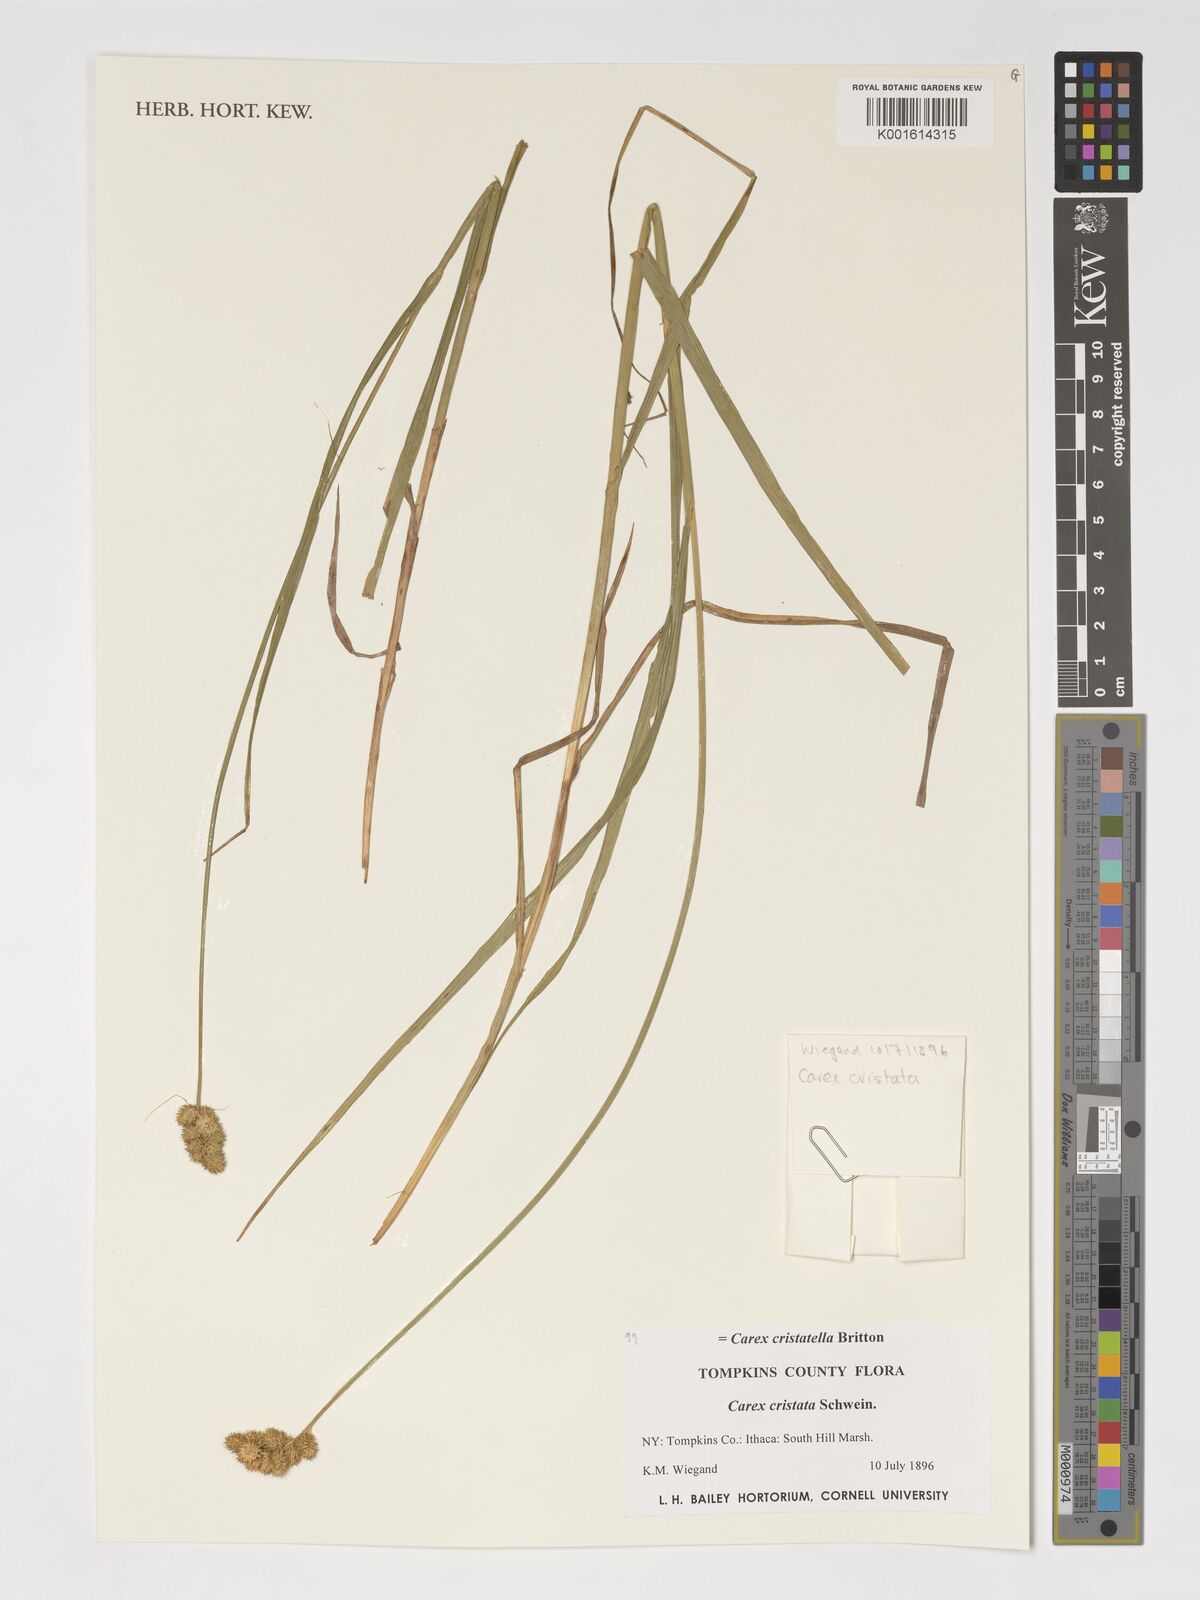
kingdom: Plantae
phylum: Tracheophyta
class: Liliopsida
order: Poales
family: Cyperaceae
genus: Carex
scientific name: Carex cristatella
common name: Crested oval sedge
